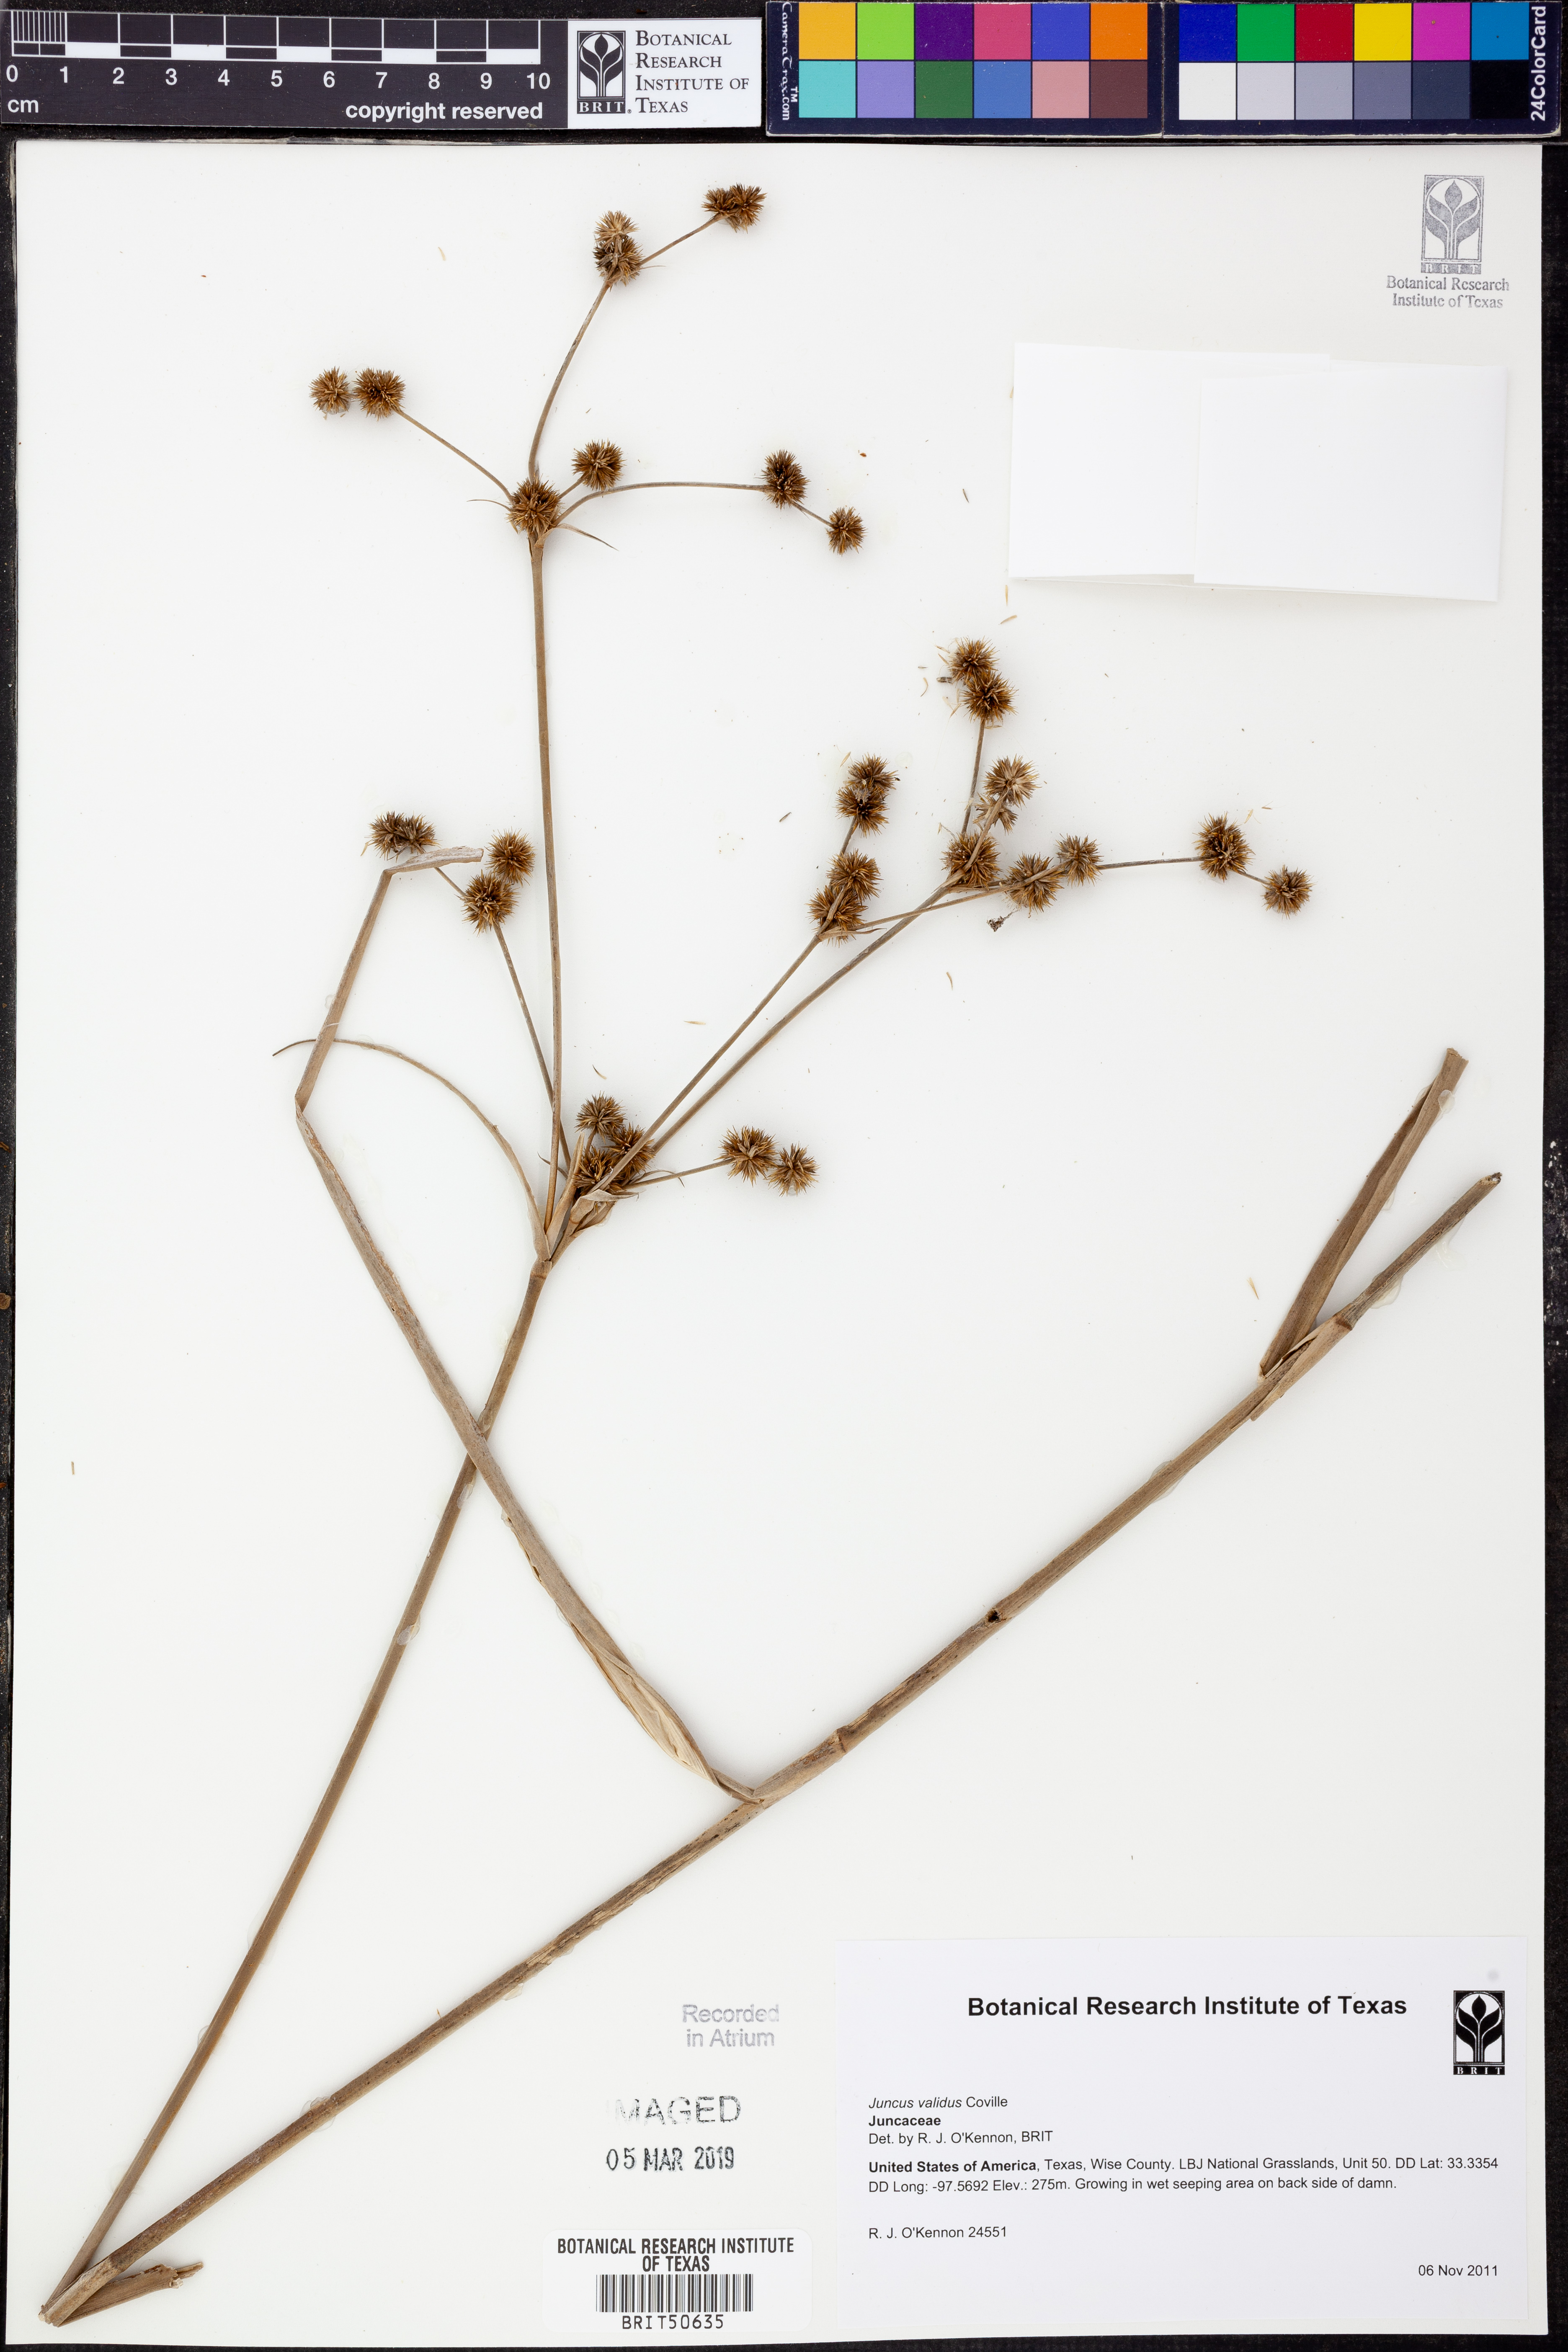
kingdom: Plantae
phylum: Tracheophyta
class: Liliopsida
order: Poales
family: Juncaceae
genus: Juncus
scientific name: Juncus validus
